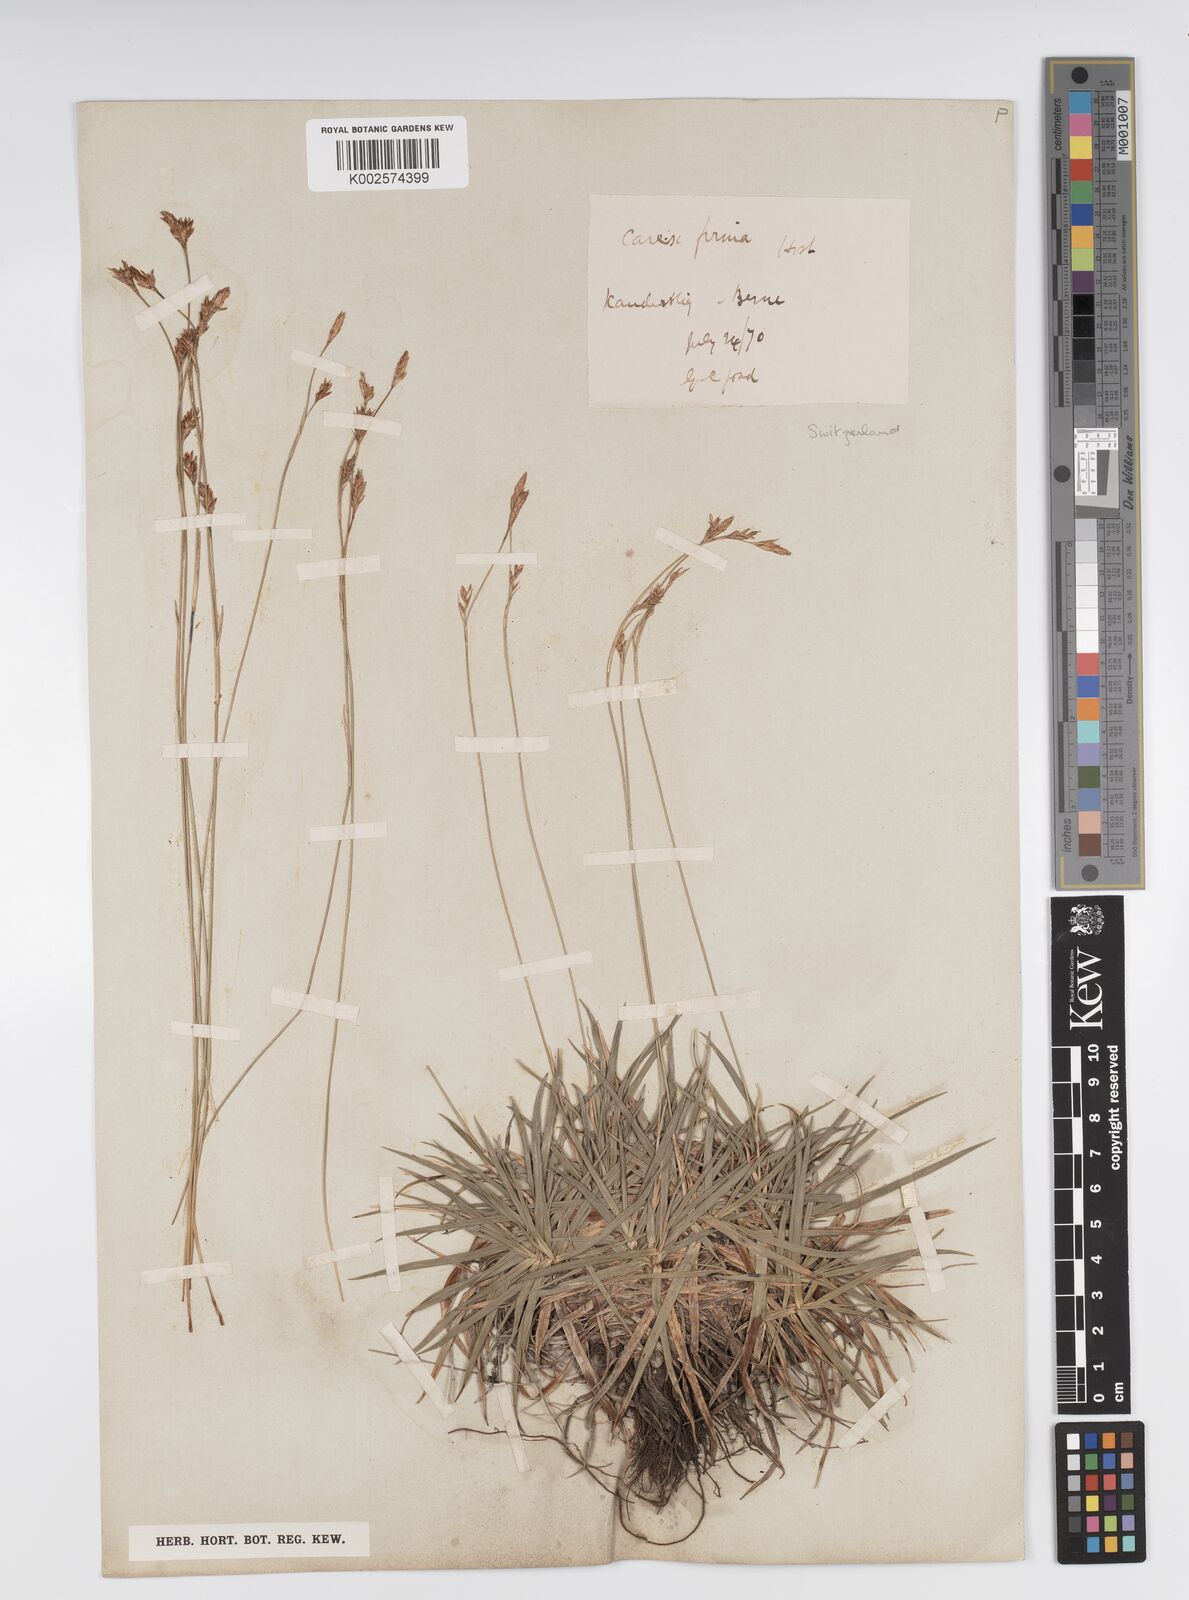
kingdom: Plantae
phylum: Tracheophyta
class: Liliopsida
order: Poales
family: Cyperaceae
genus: Carex
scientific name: Carex firma
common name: Dwarf pillow sedge
